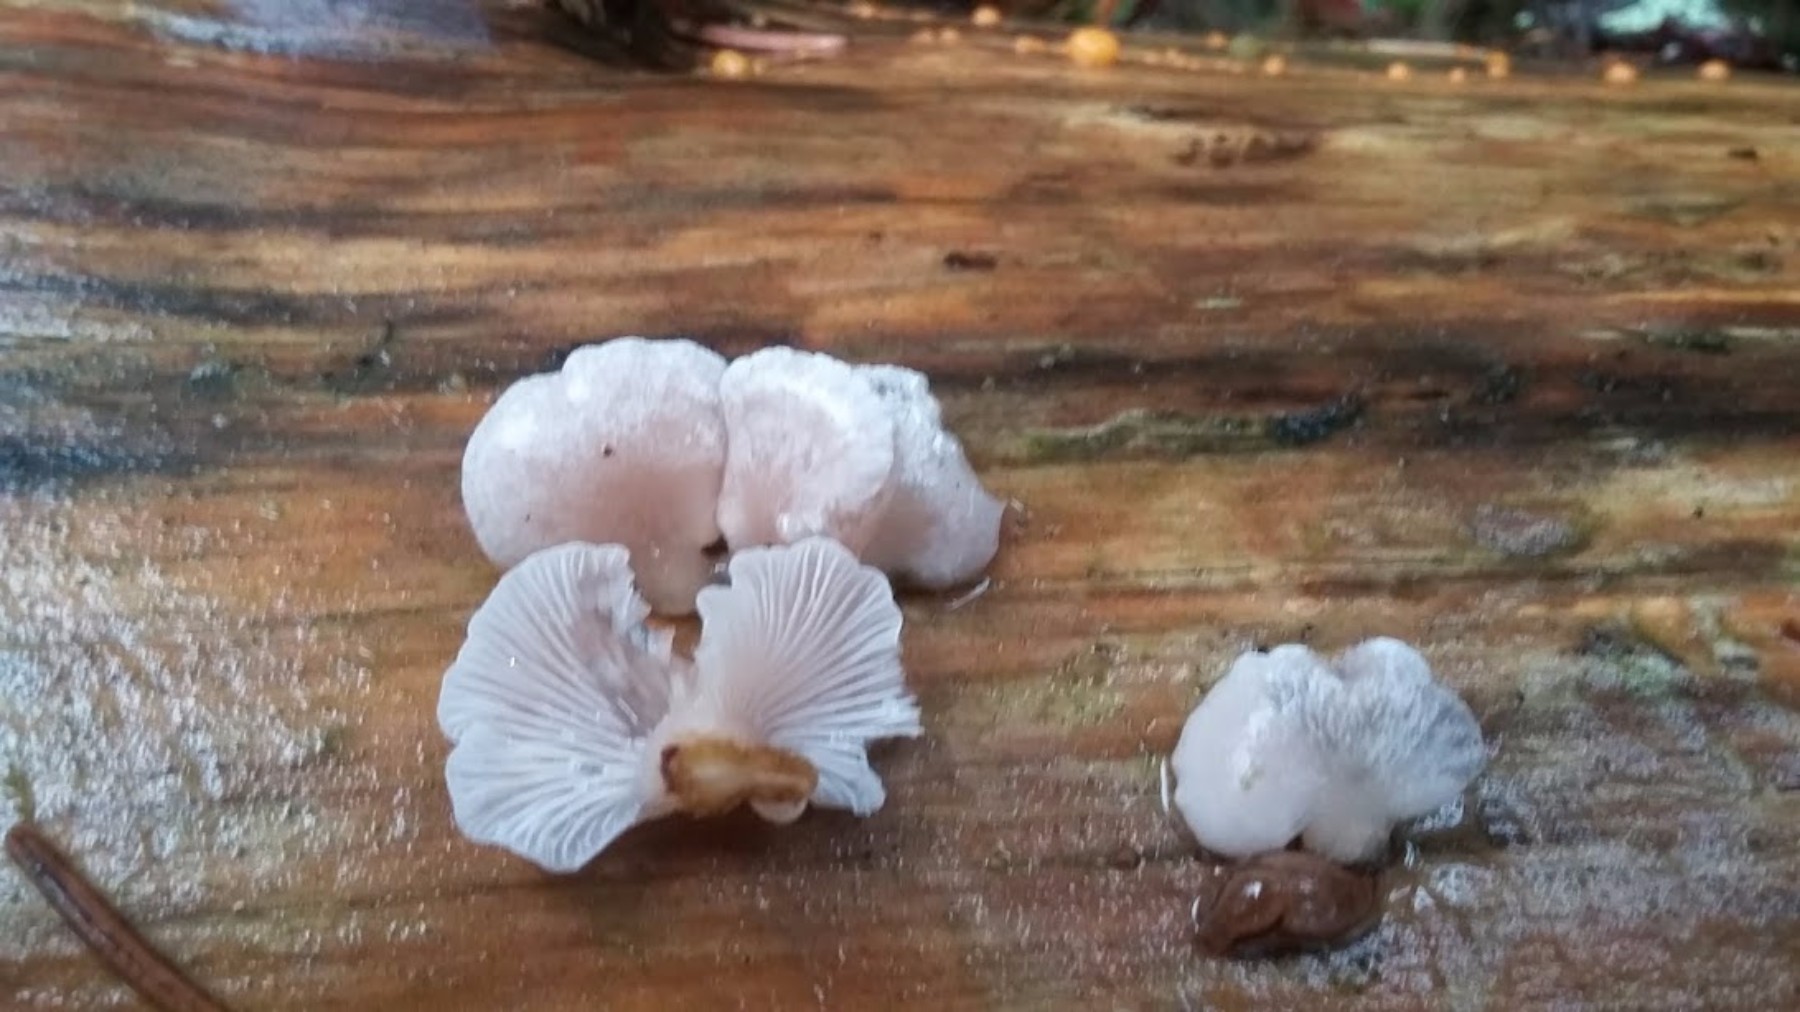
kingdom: Fungi
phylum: Basidiomycota
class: Agaricomycetes
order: Agaricales
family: Mycenaceae
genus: Panellus
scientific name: Panellus mitis
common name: mild epaulethat
